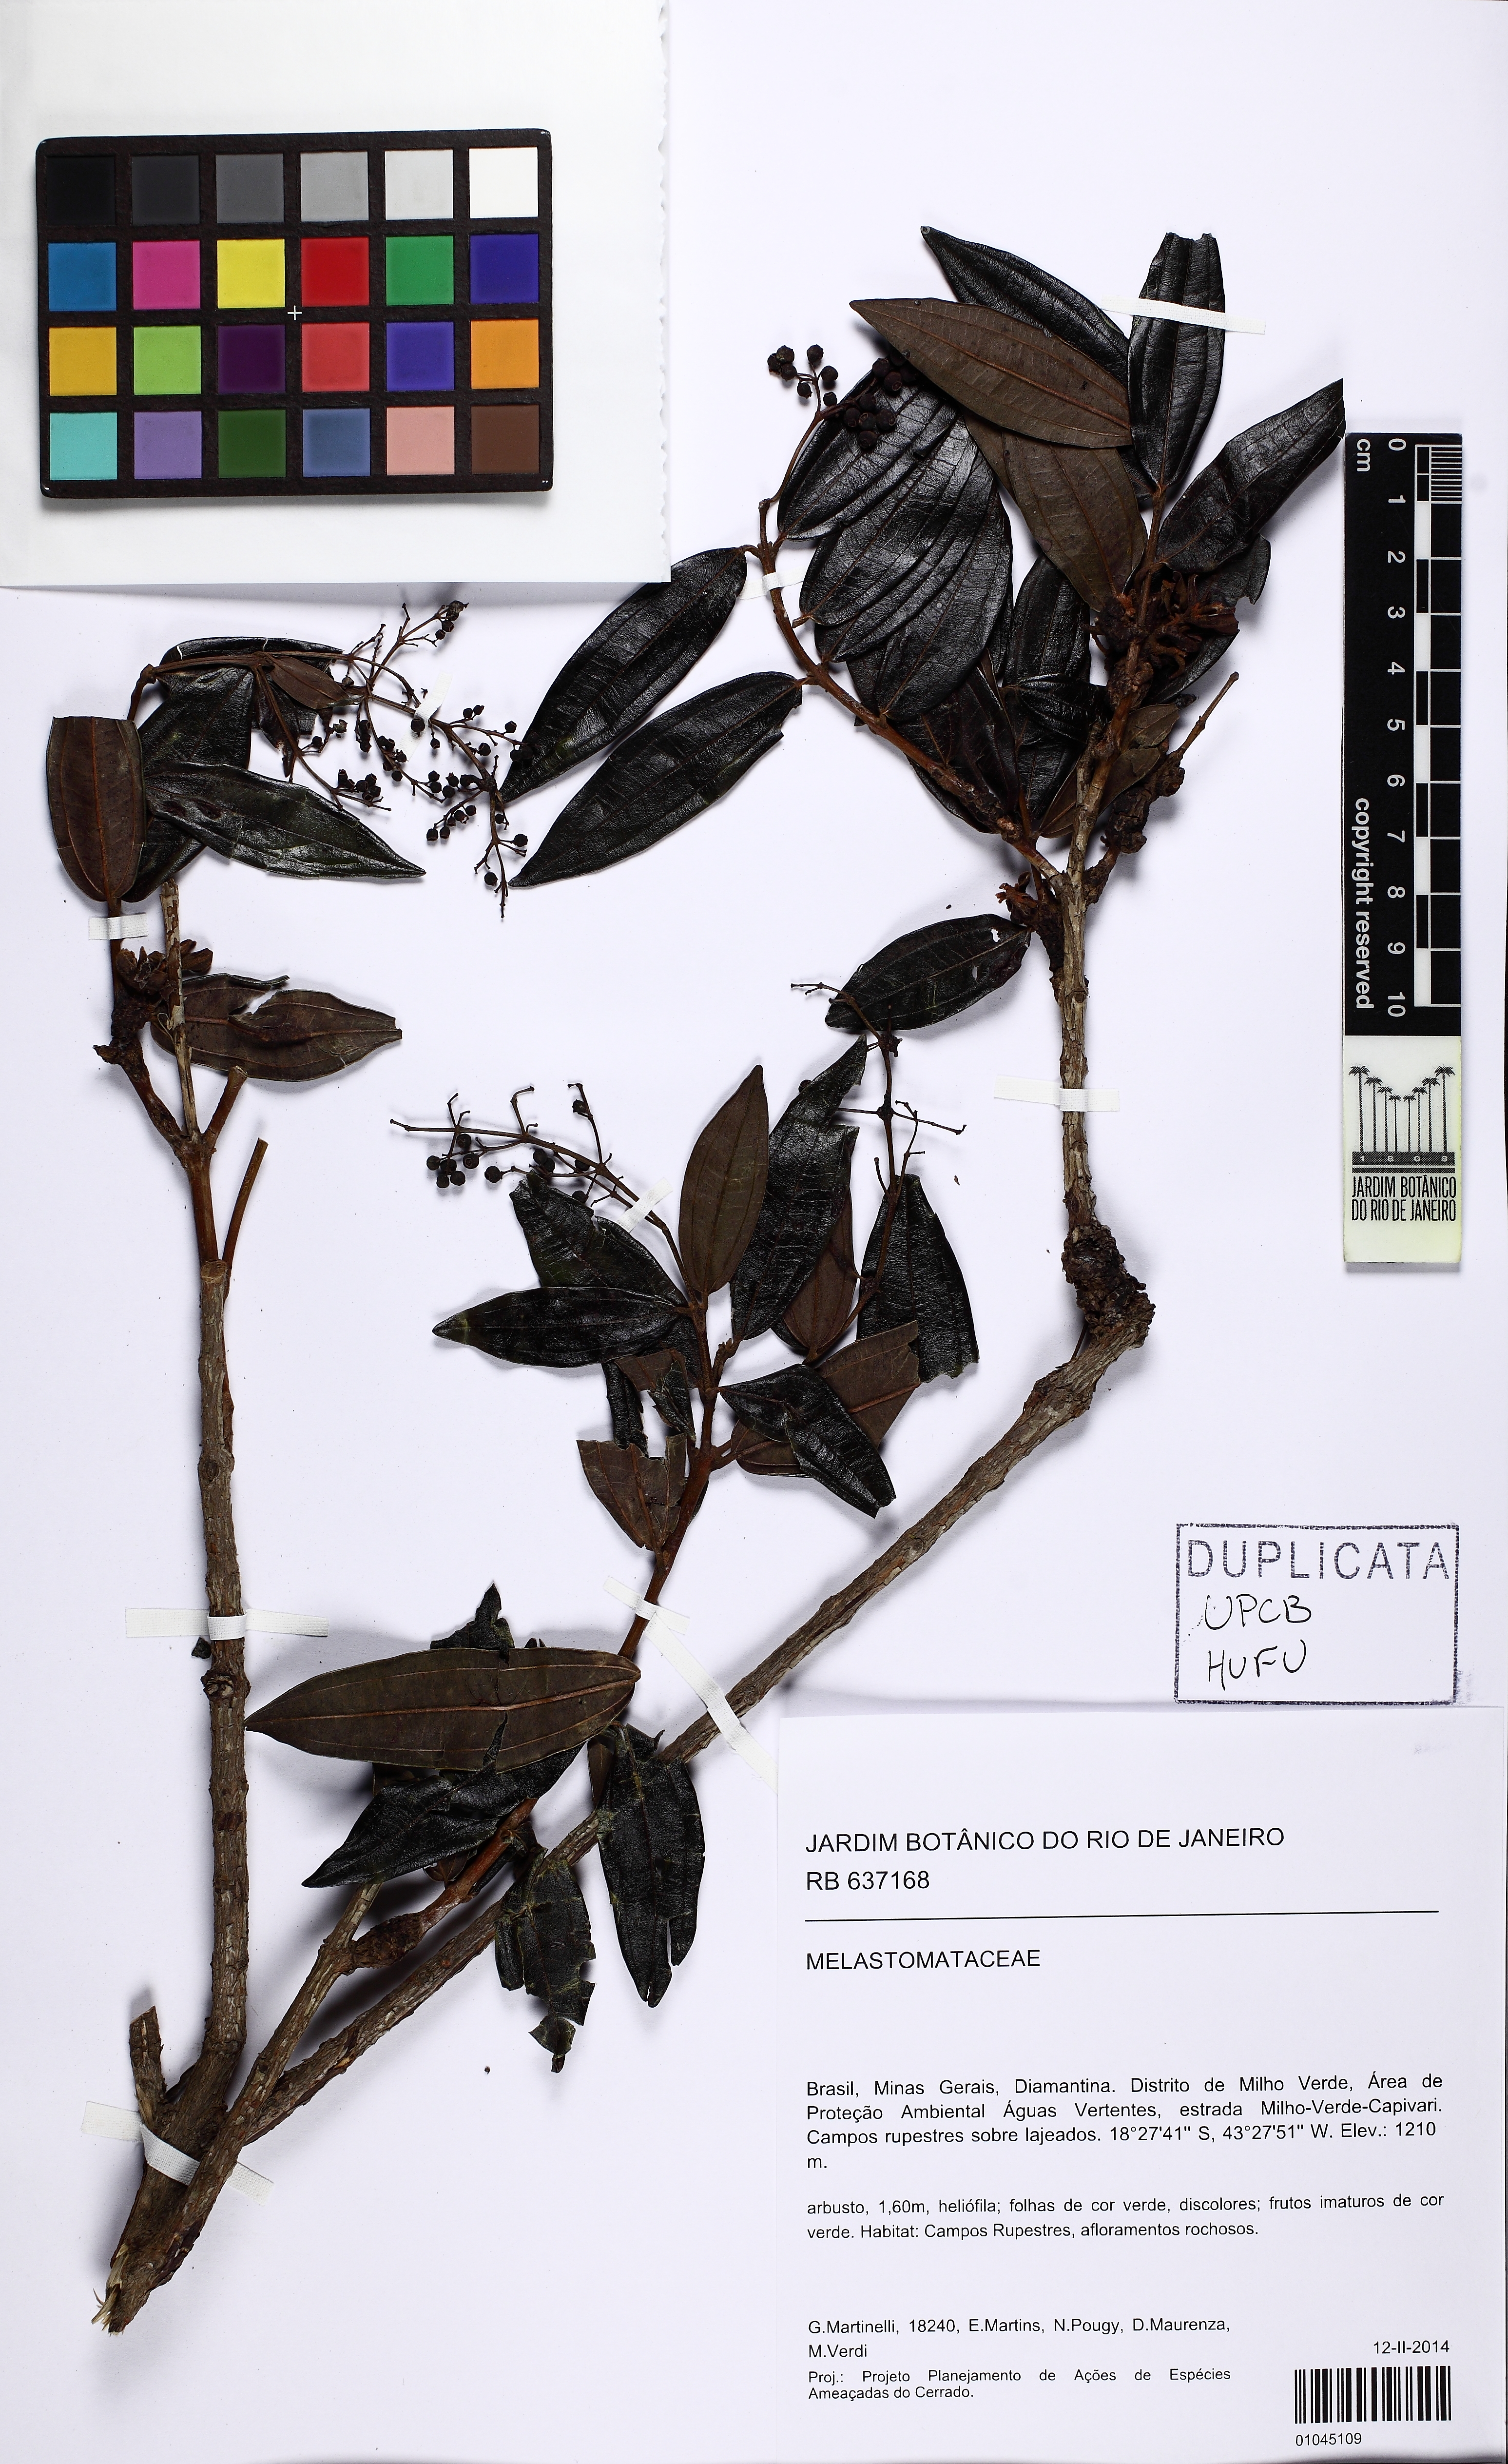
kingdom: Plantae
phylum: Tracheophyta
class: Magnoliopsida
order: Myrtales
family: Melastomataceae
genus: Miconia
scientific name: Miconia
